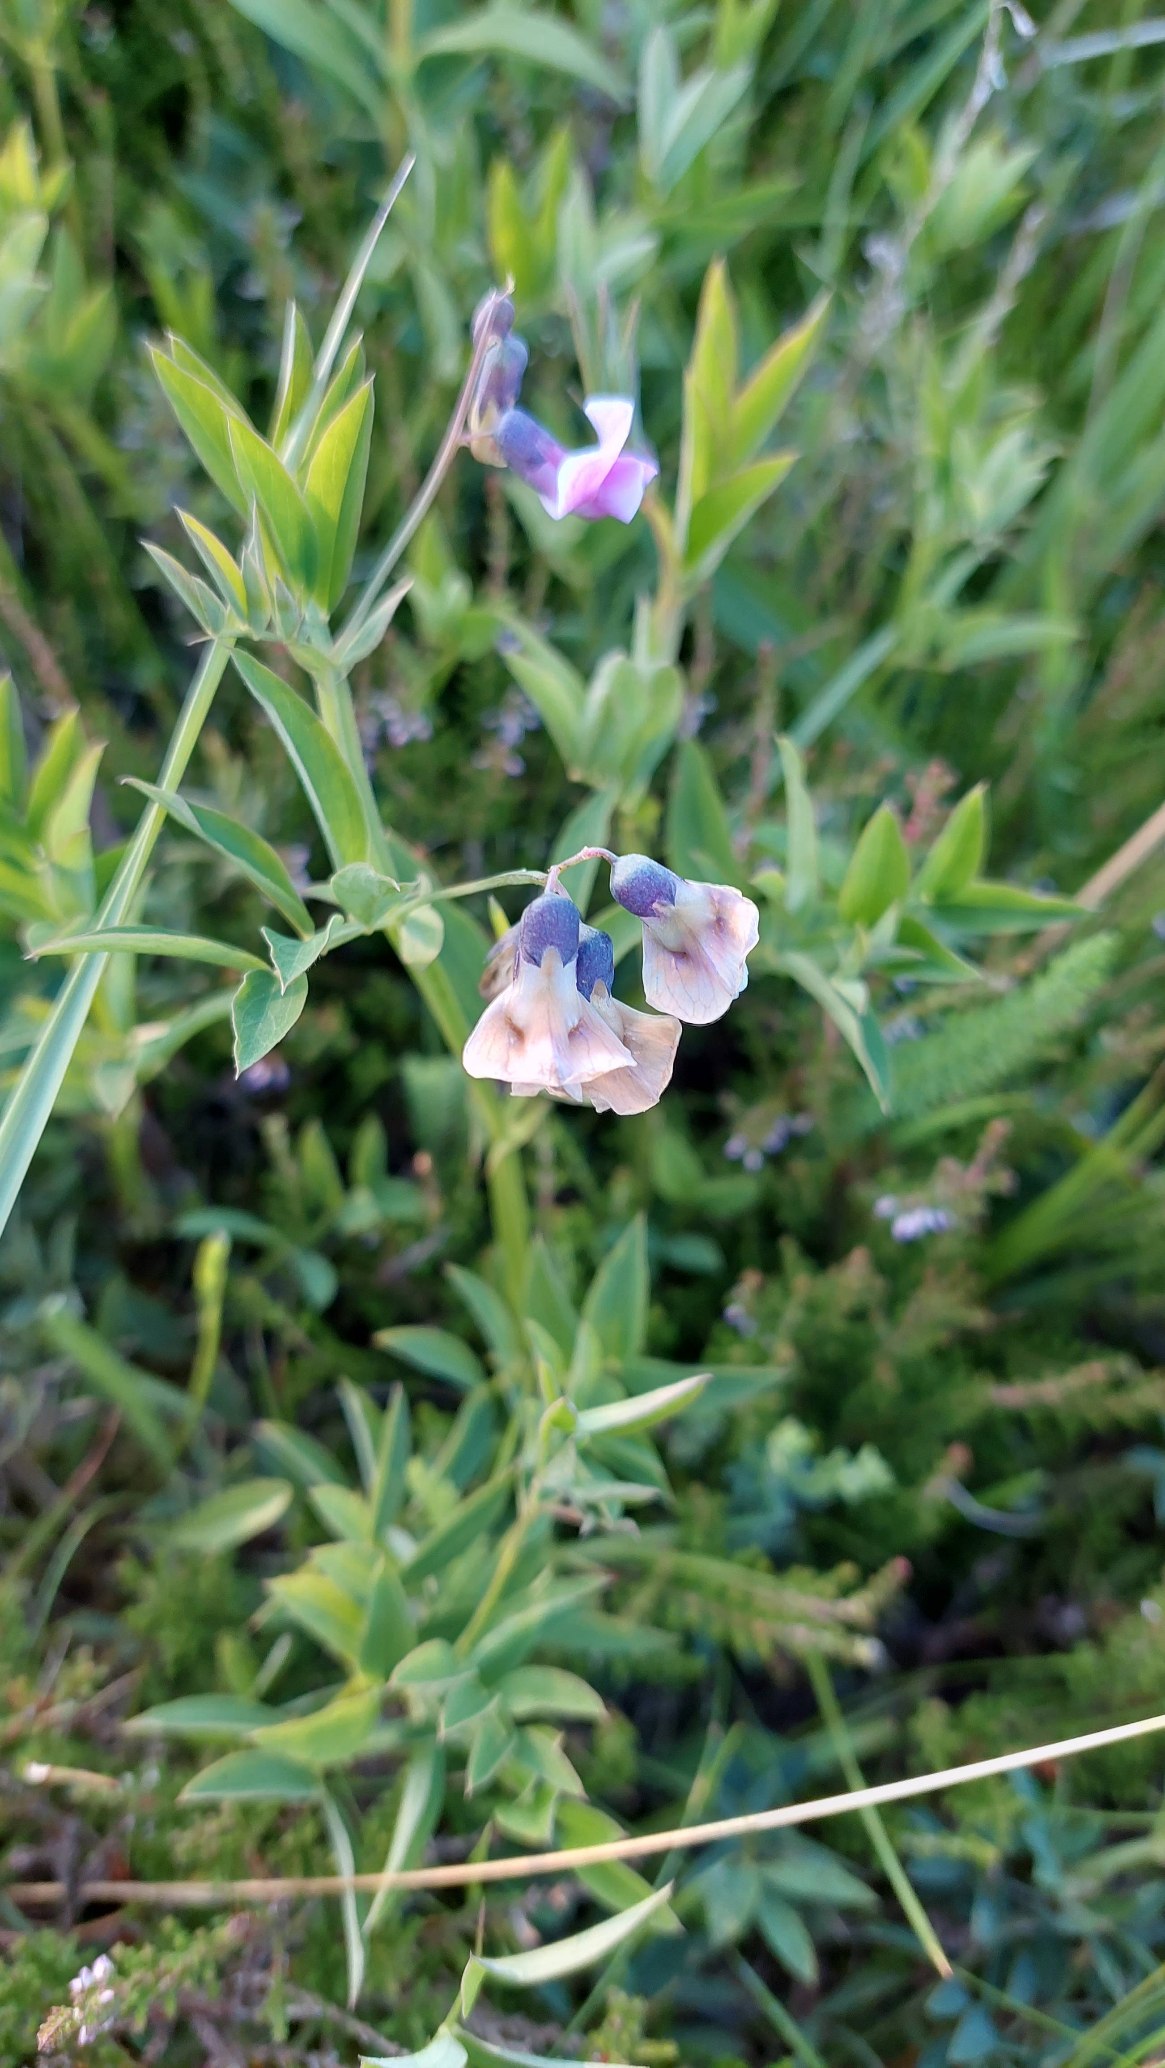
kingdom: Plantae
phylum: Tracheophyta
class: Magnoliopsida
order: Fabales
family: Fabaceae
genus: Lathyrus
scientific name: Lathyrus linifolius
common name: Krat-fladbælg
